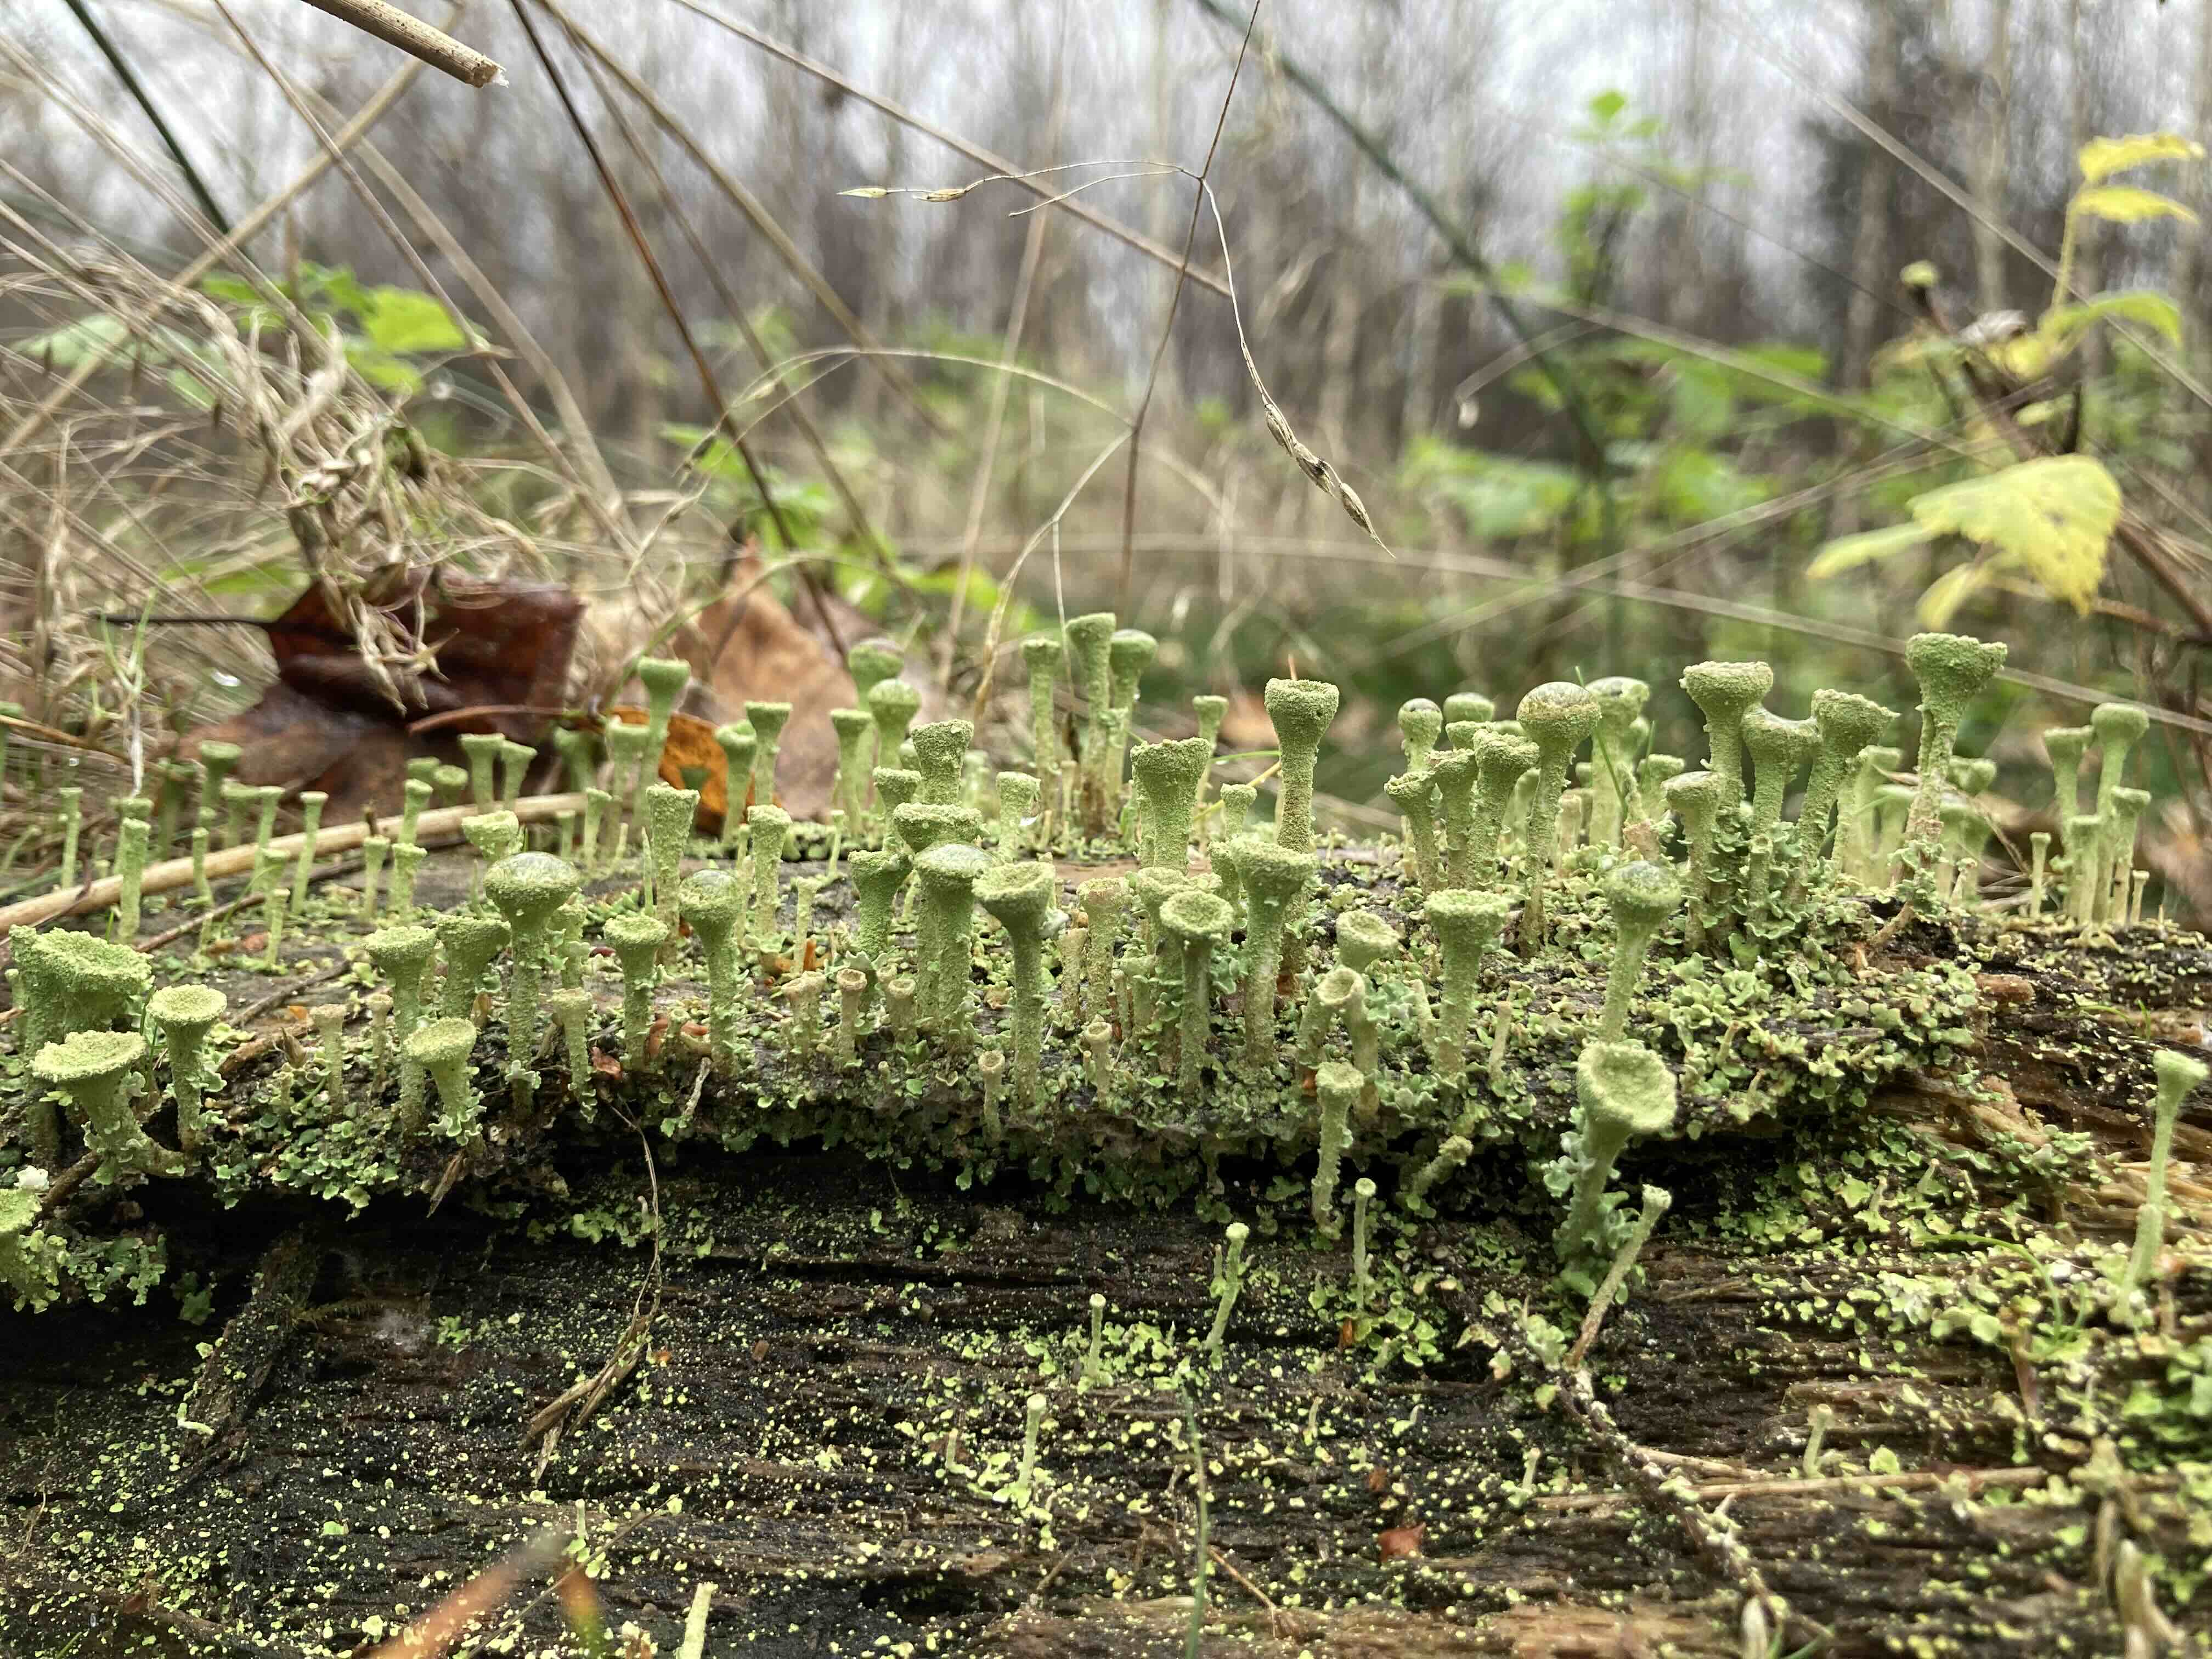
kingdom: Fungi
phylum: Ascomycota
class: Lecanoromycetes
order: Lecanorales
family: Cladoniaceae
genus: Cladonia
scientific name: Cladonia fimbriata
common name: bleggrøn bægerlav
